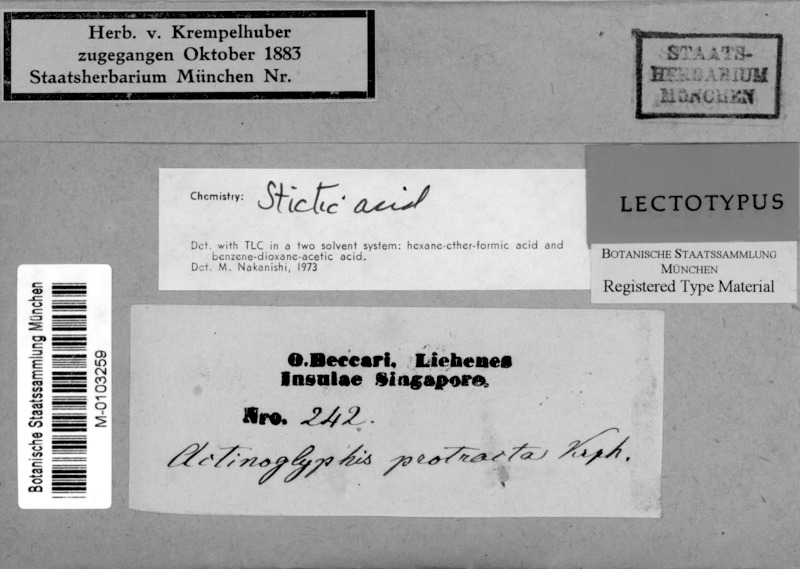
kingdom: Fungi
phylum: Ascomycota
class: Lecanoromycetes
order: Ostropales
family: Graphidaceae
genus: Sarcographa
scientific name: Sarcographa
